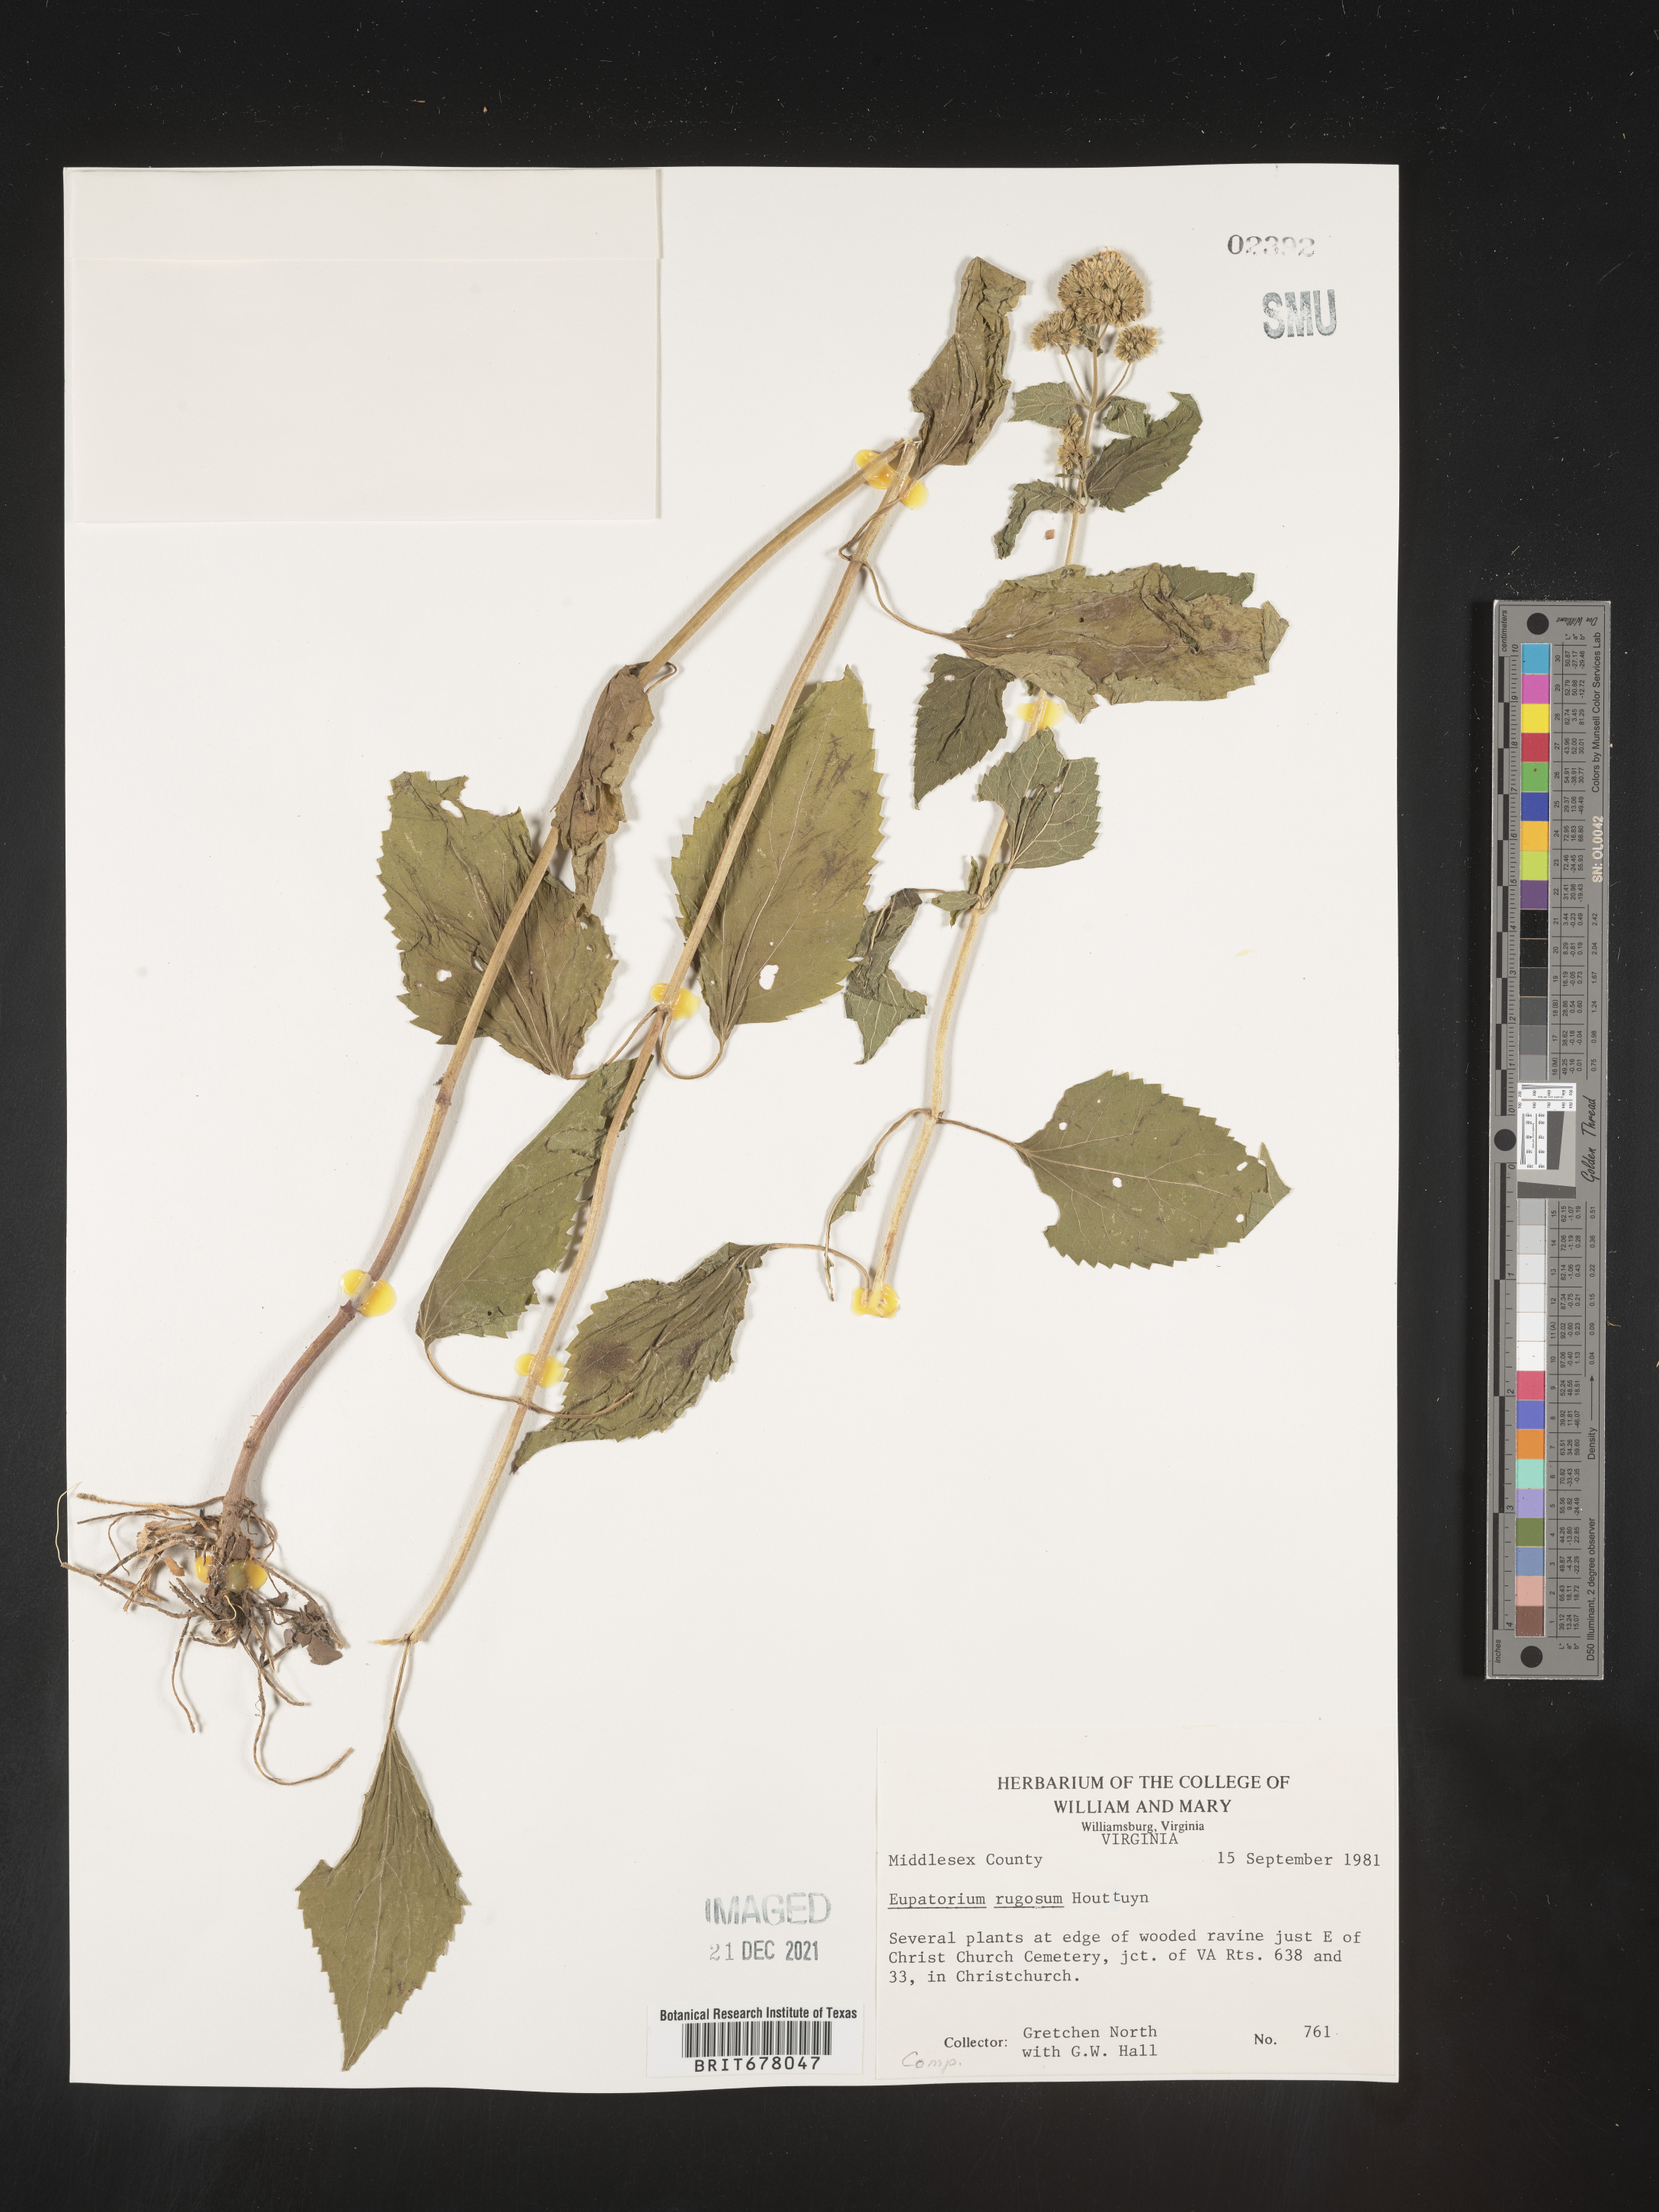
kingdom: Plantae
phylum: Tracheophyta
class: Magnoliopsida
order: Asterales
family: Asteraceae
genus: Eupatorium
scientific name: Eupatorium
